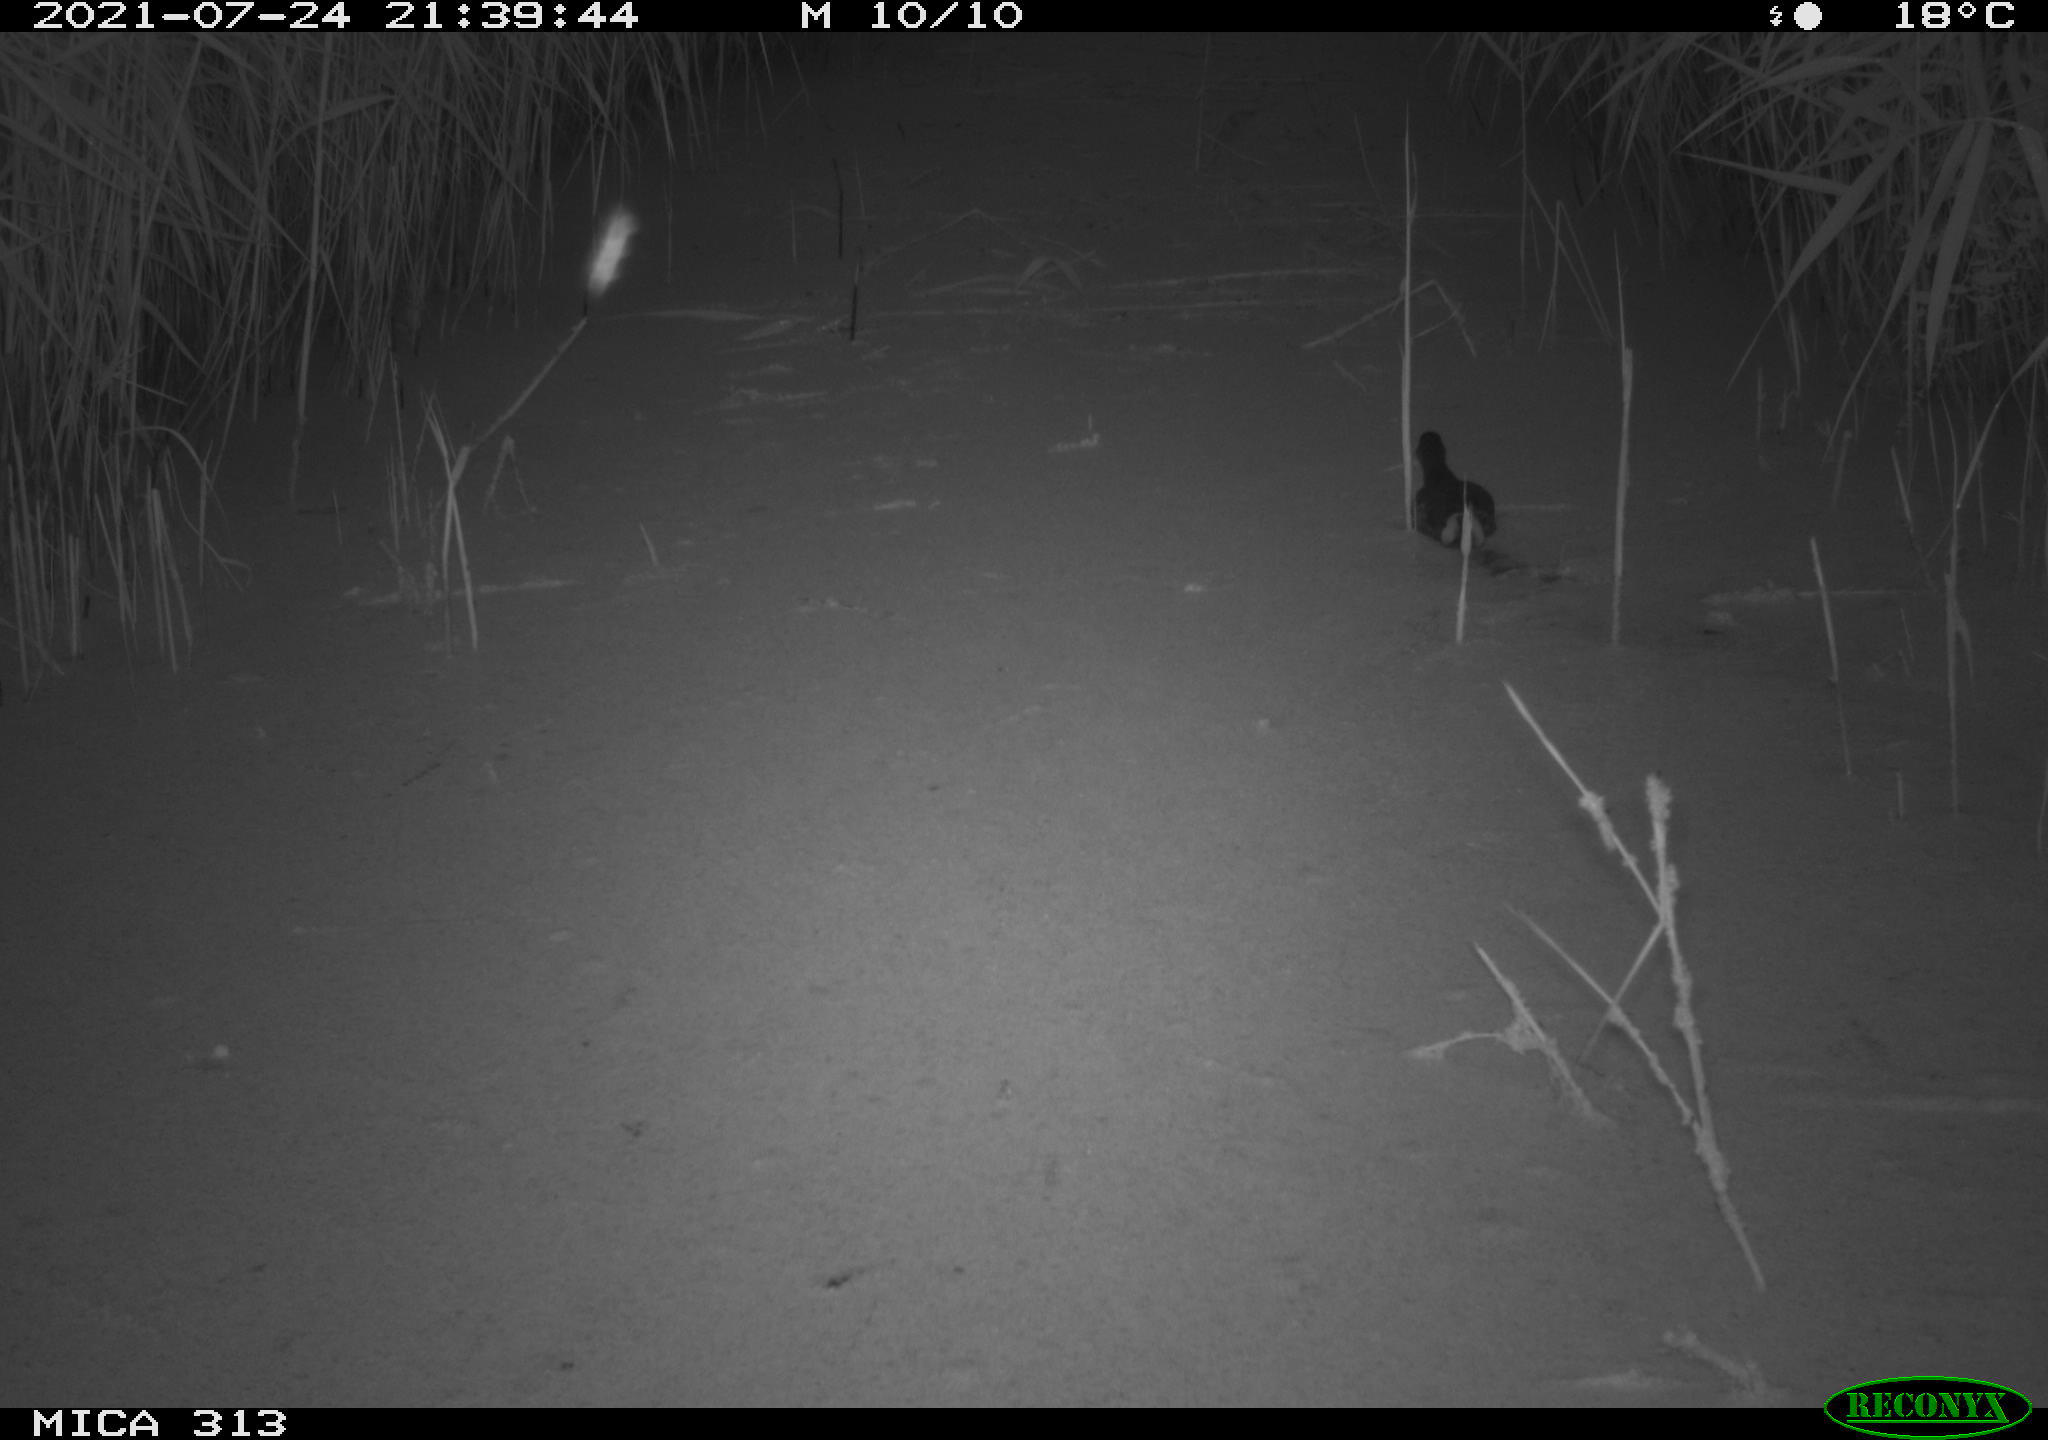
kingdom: Animalia
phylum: Chordata
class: Aves
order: Gruiformes
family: Rallidae
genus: Gallinula
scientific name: Gallinula chloropus
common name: Common moorhen
